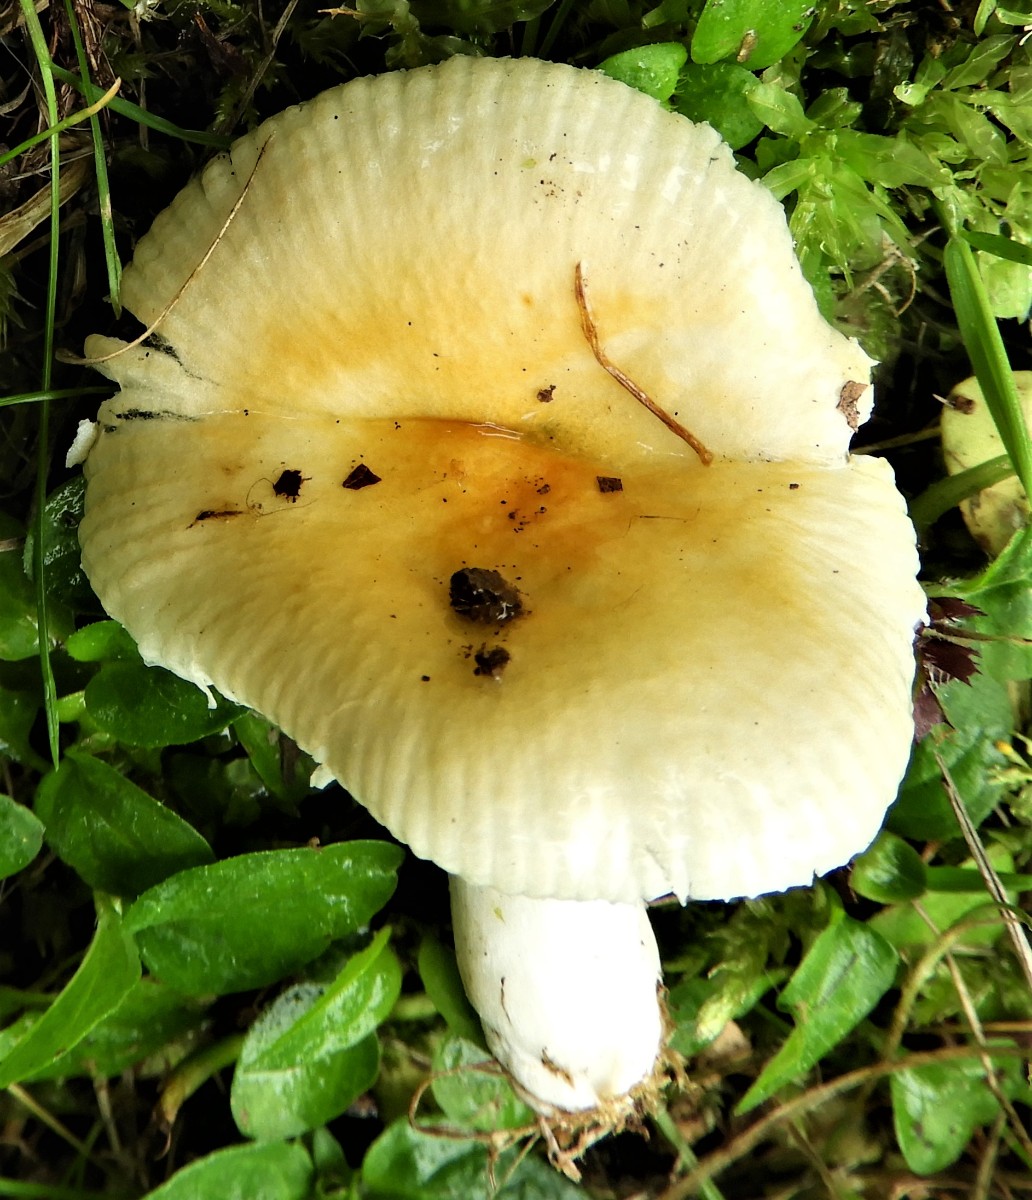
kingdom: Fungi
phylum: Basidiomycota
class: Agaricomycetes
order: Russulales
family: Russulaceae
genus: Russula
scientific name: Russula solaris
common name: sol-skørhat
